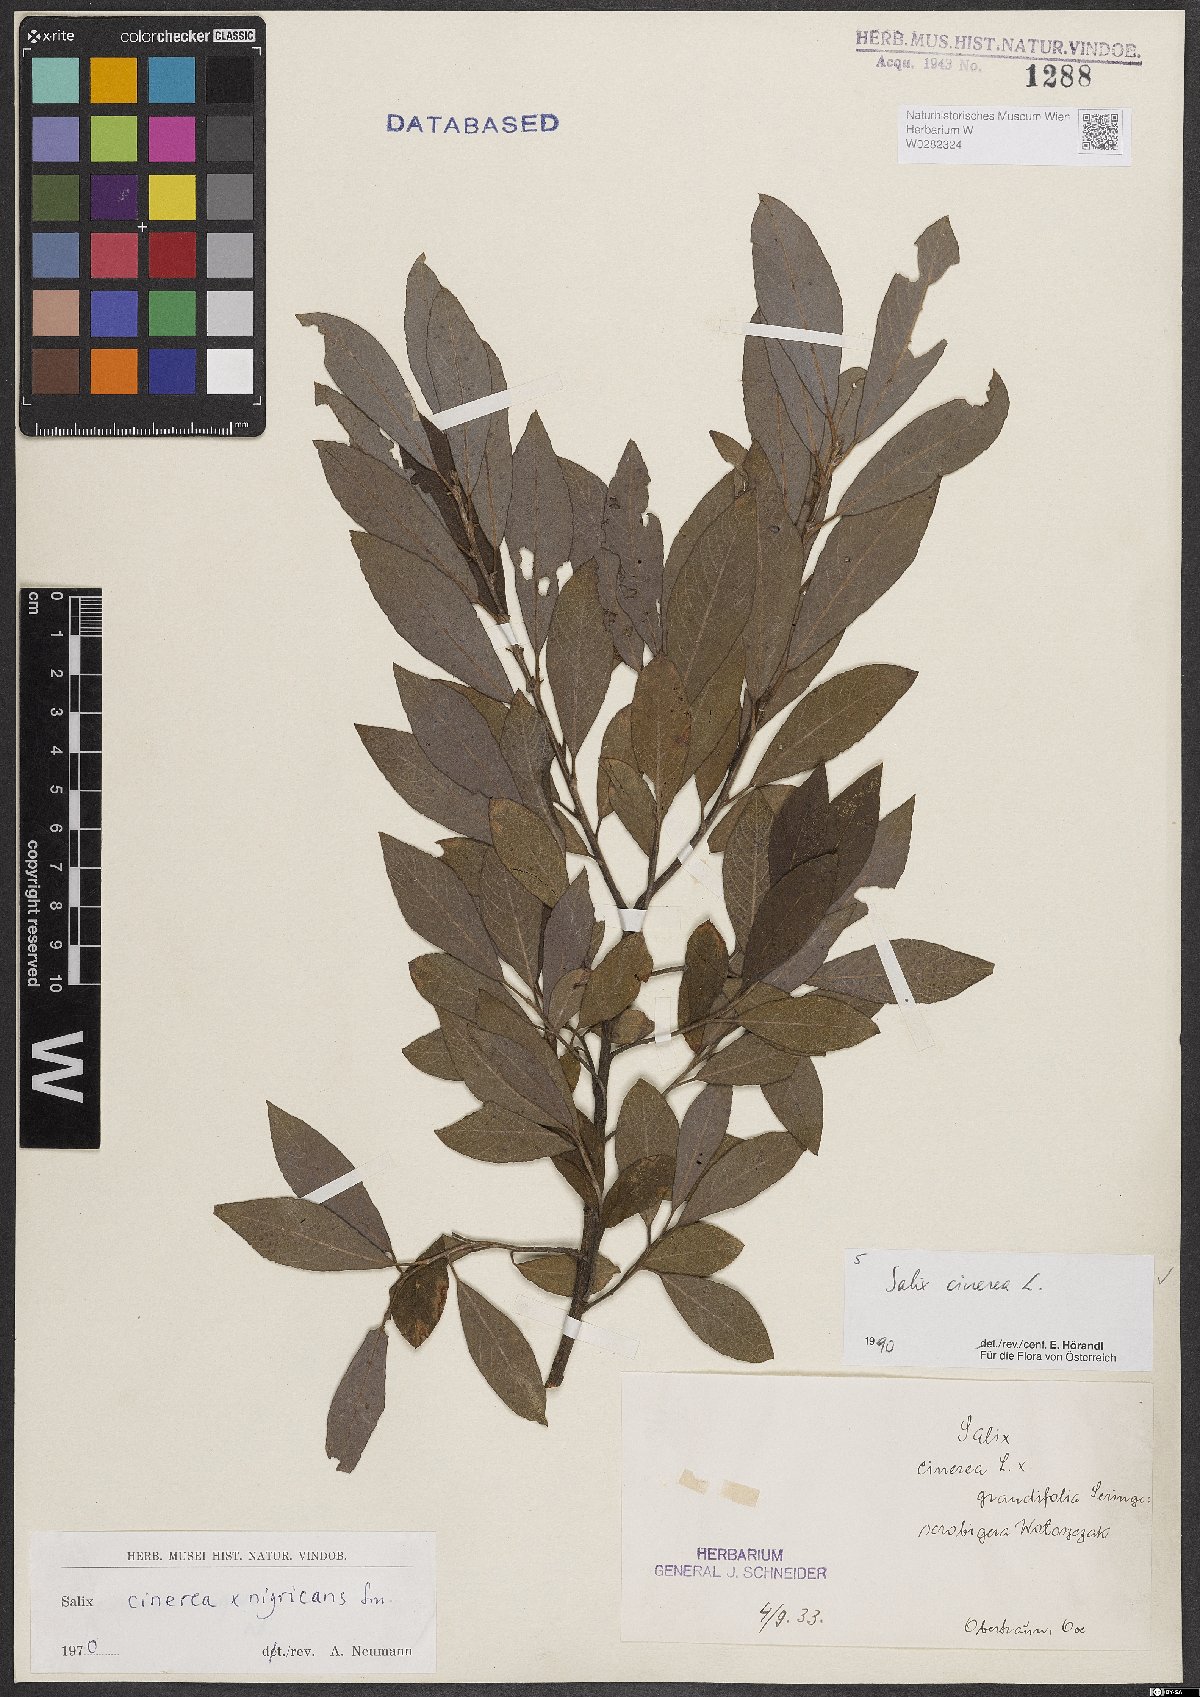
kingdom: Plantae
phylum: Tracheophyta
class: Magnoliopsida
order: Malpighiales
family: Salicaceae
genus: Salix
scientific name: Salix cinerea
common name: Common sallow
